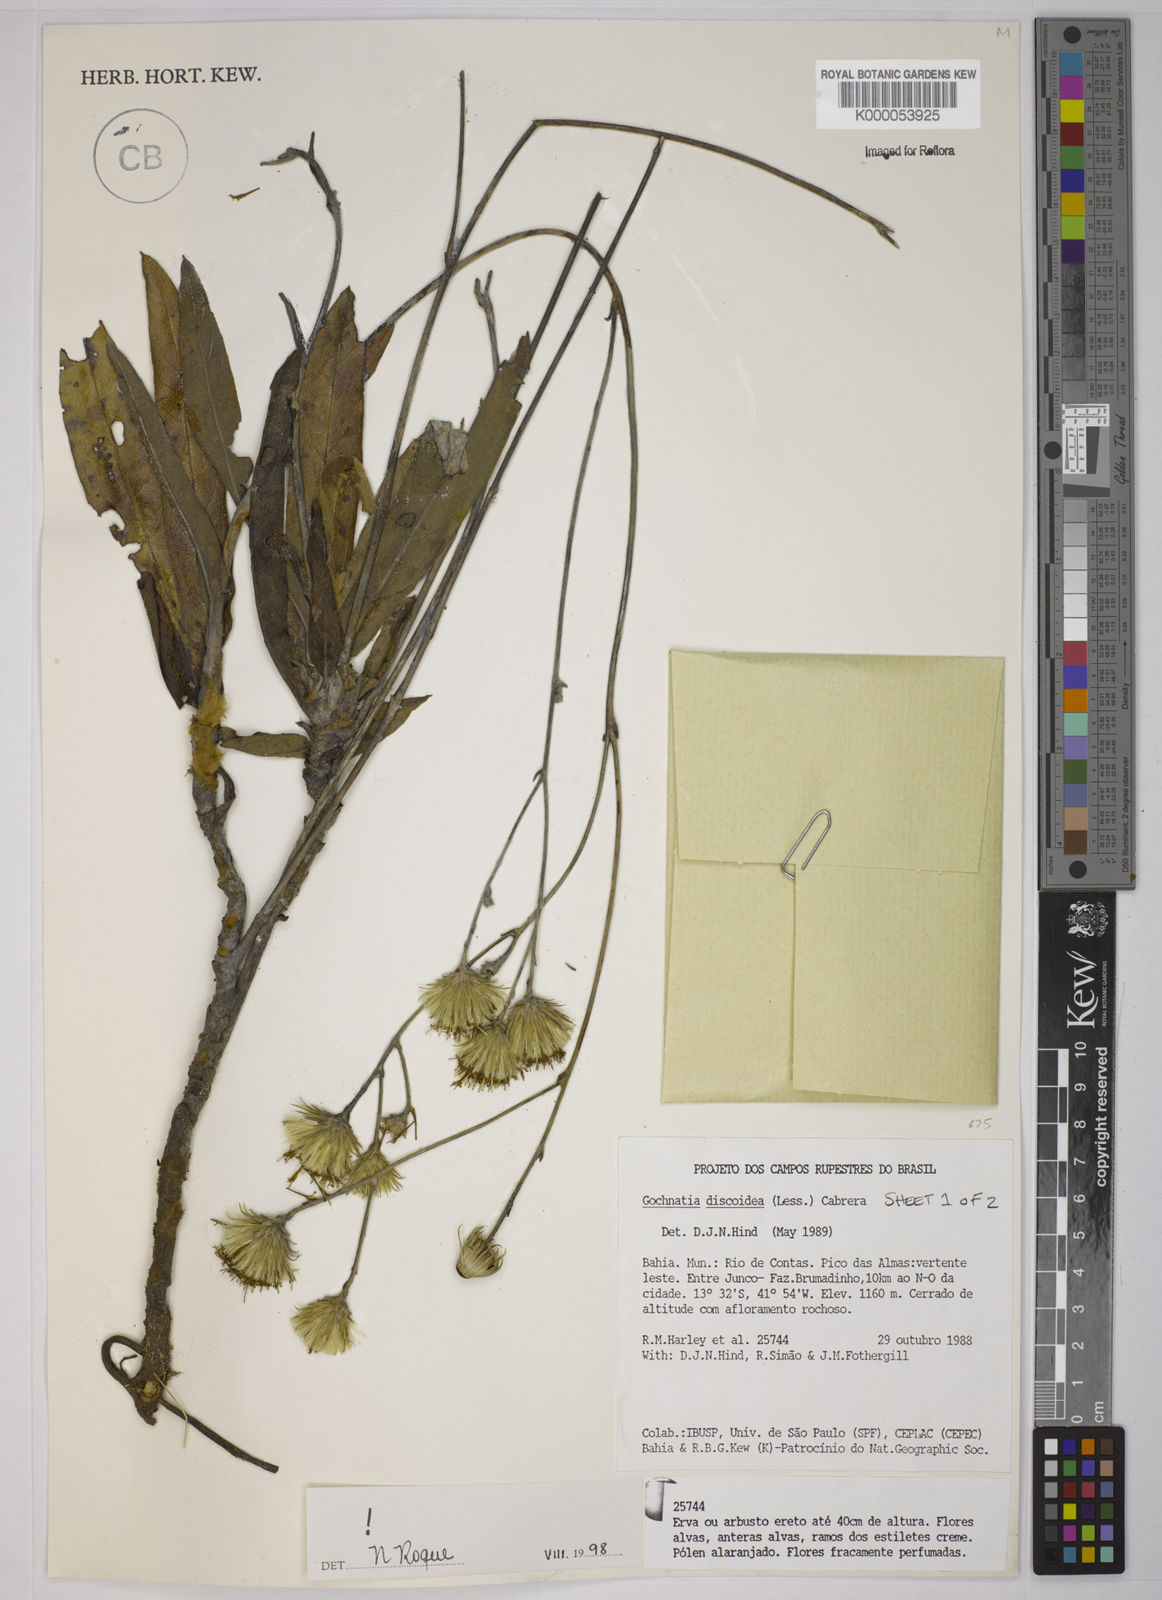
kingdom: Plantae
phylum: Tracheophyta
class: Magnoliopsida
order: Asterales
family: Asteraceae
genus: Richterago
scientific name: Richterago discoidea
